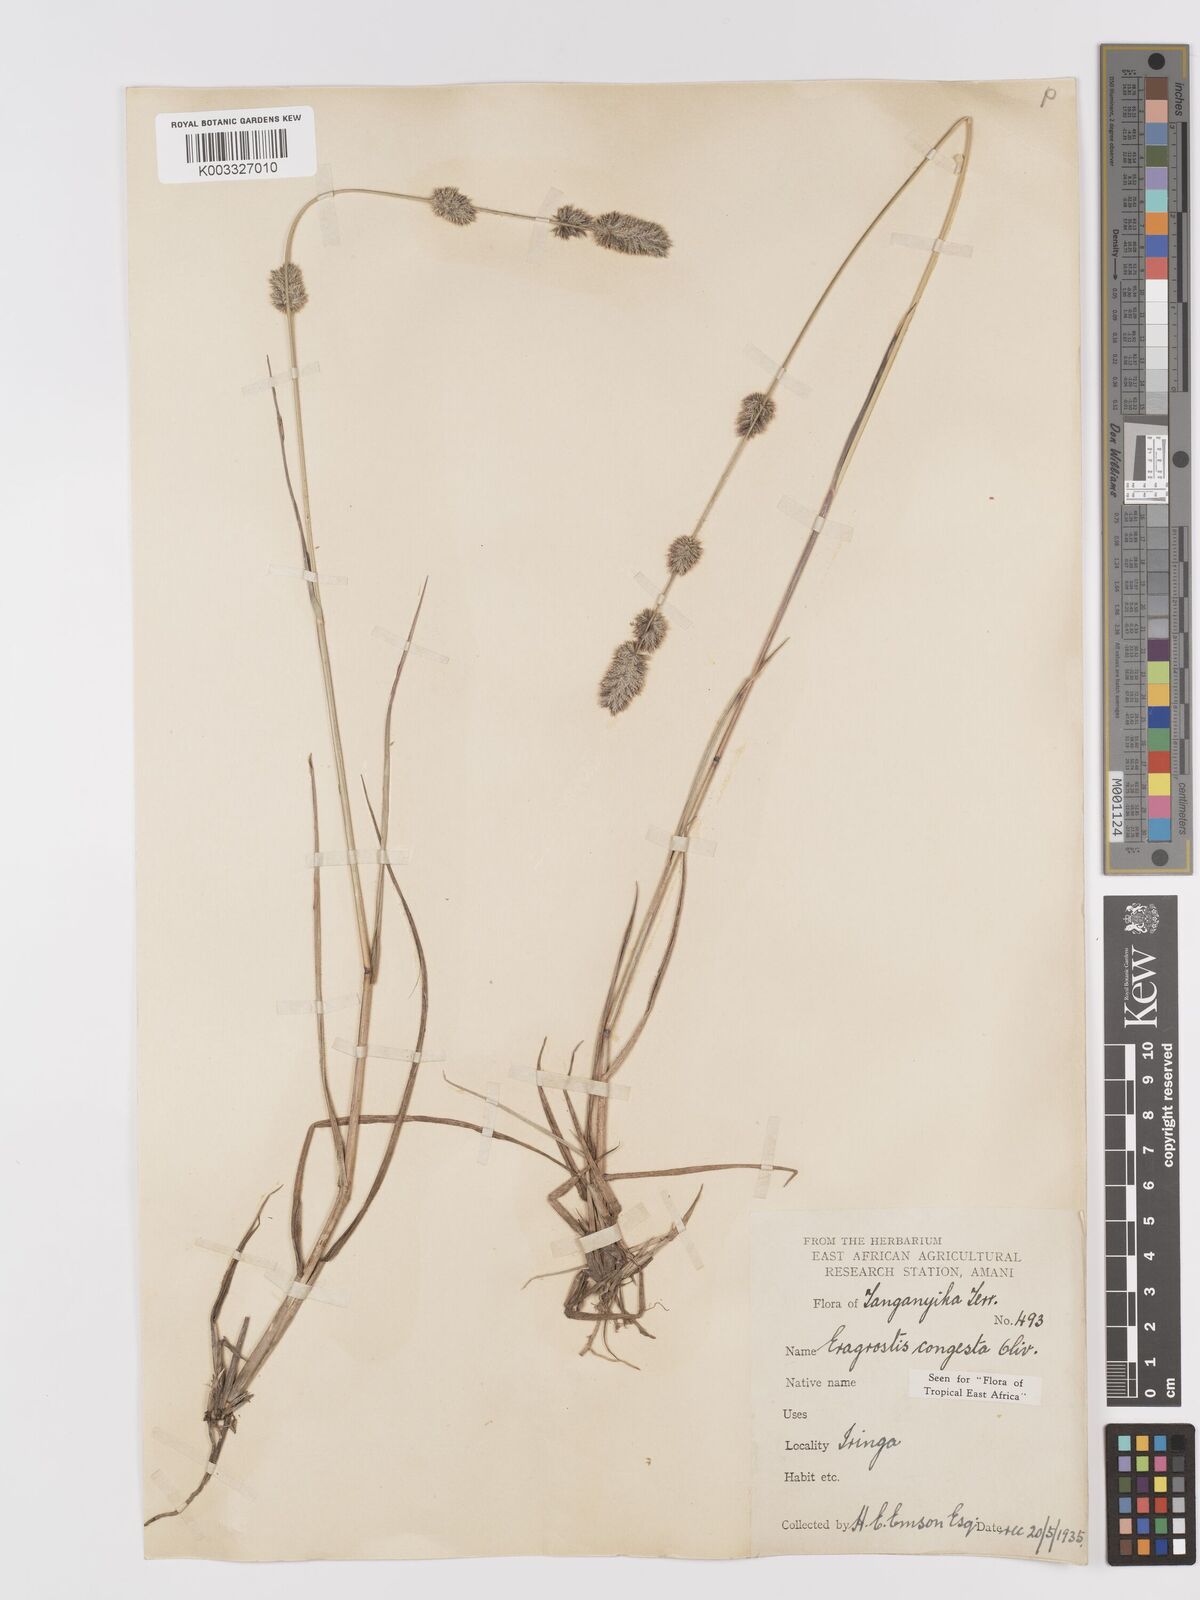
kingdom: Plantae
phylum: Tracheophyta
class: Liliopsida
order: Poales
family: Poaceae
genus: Eragrostis
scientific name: Eragrostis congesta
